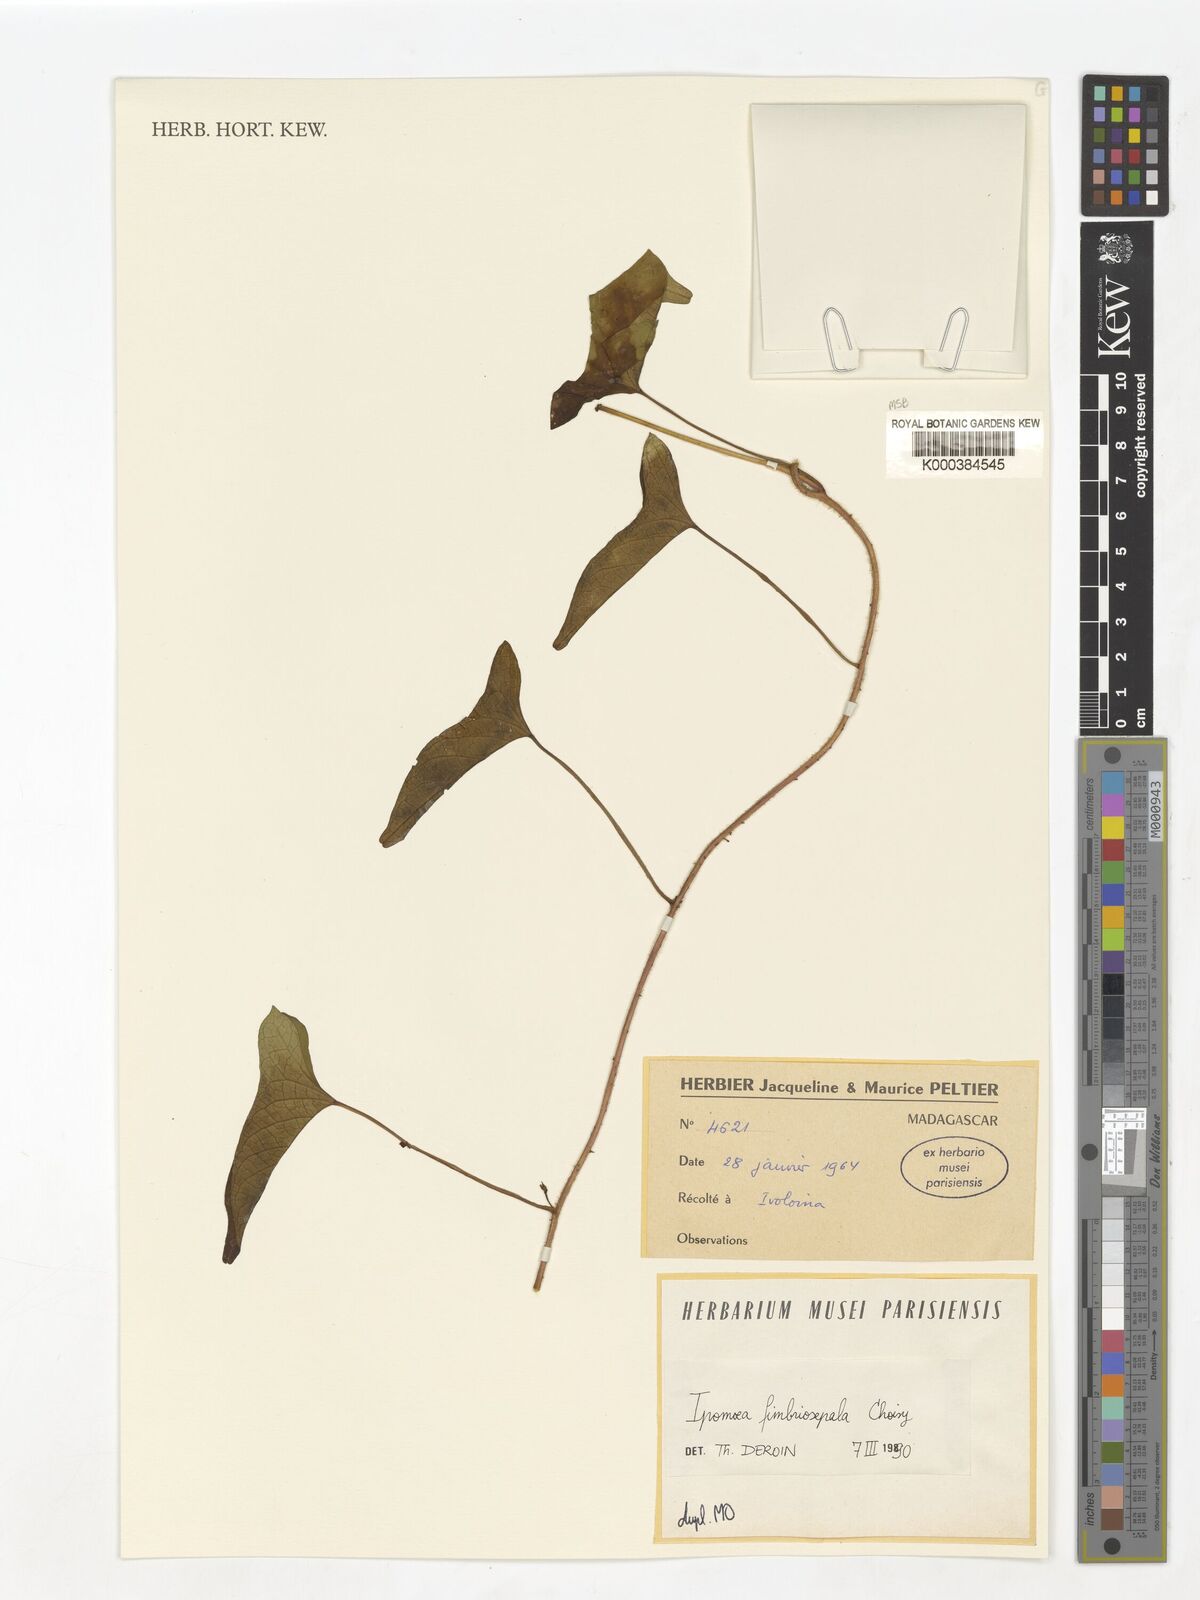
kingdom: Plantae
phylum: Tracheophyta
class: Magnoliopsida
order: Solanales
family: Convolvulaceae
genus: Ipomoea
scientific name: Ipomoea fimbriosepala
